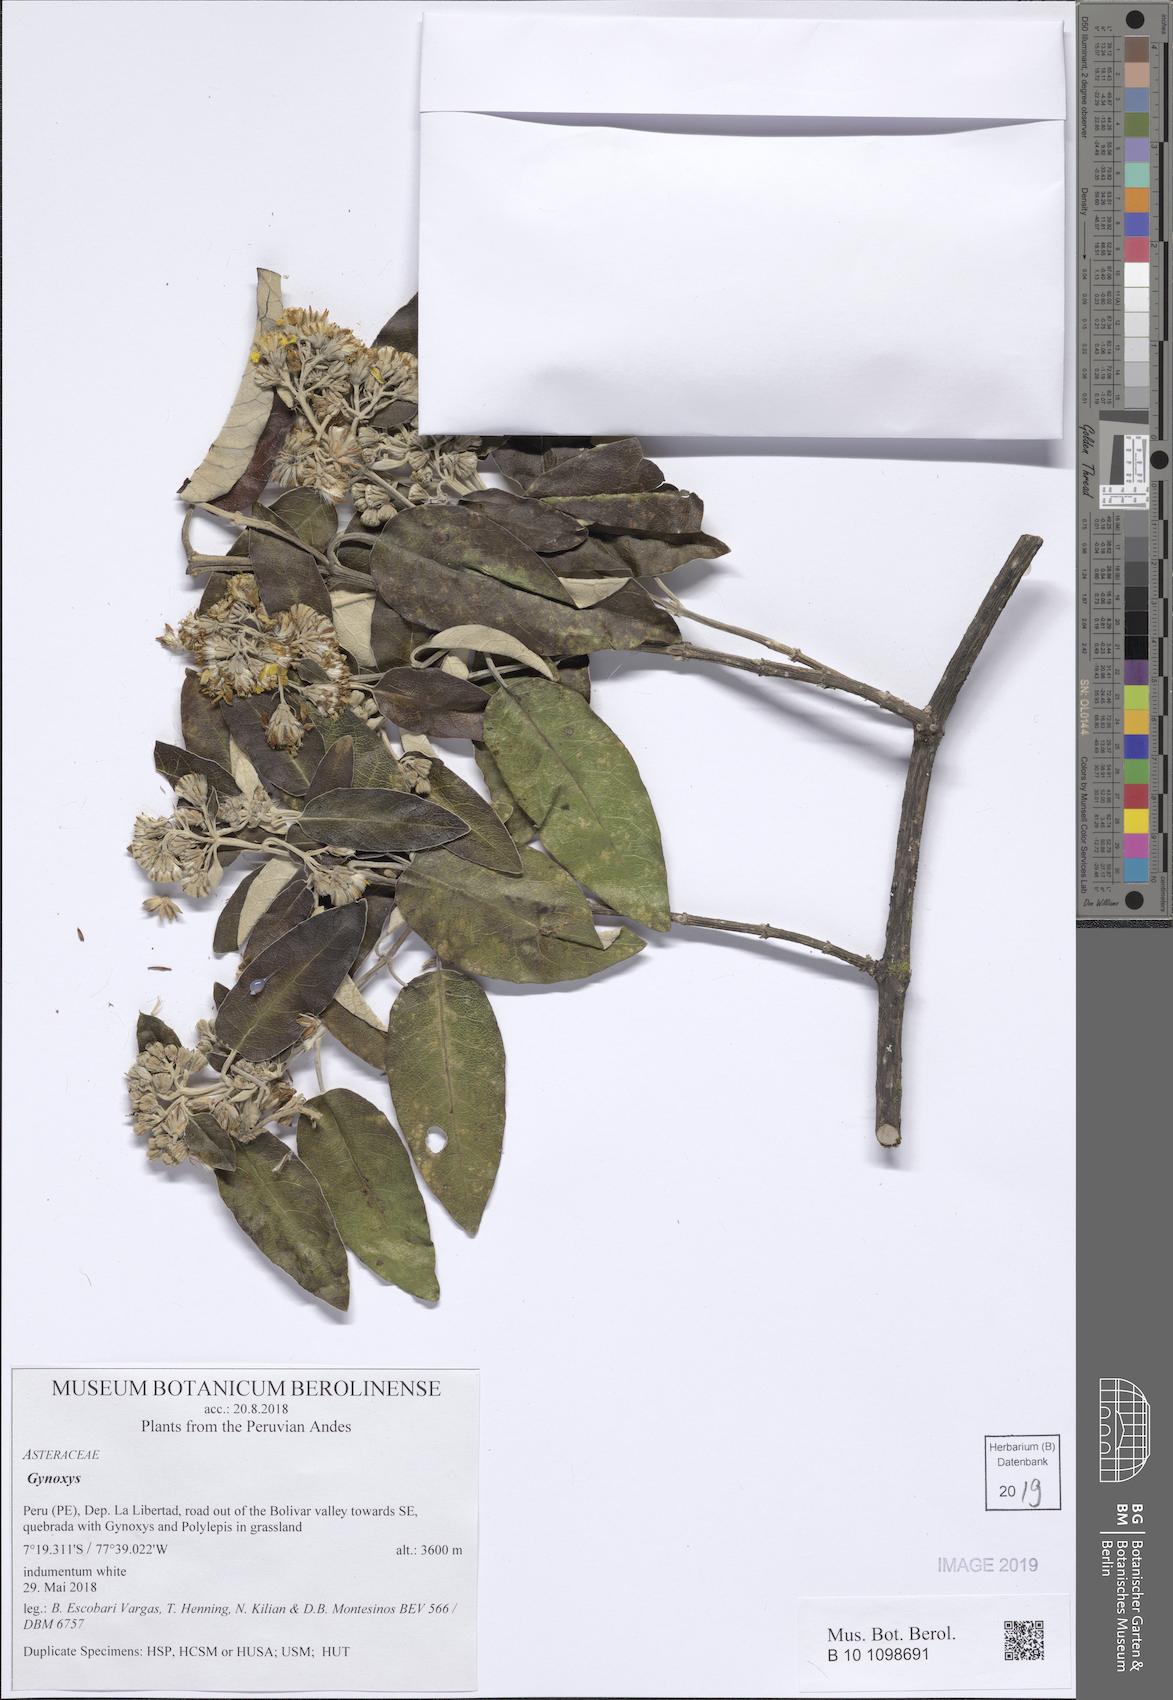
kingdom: Plantae
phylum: Tracheophyta
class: Magnoliopsida
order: Asterales
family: Asteraceae
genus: Gynoxys
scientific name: Gynoxys
